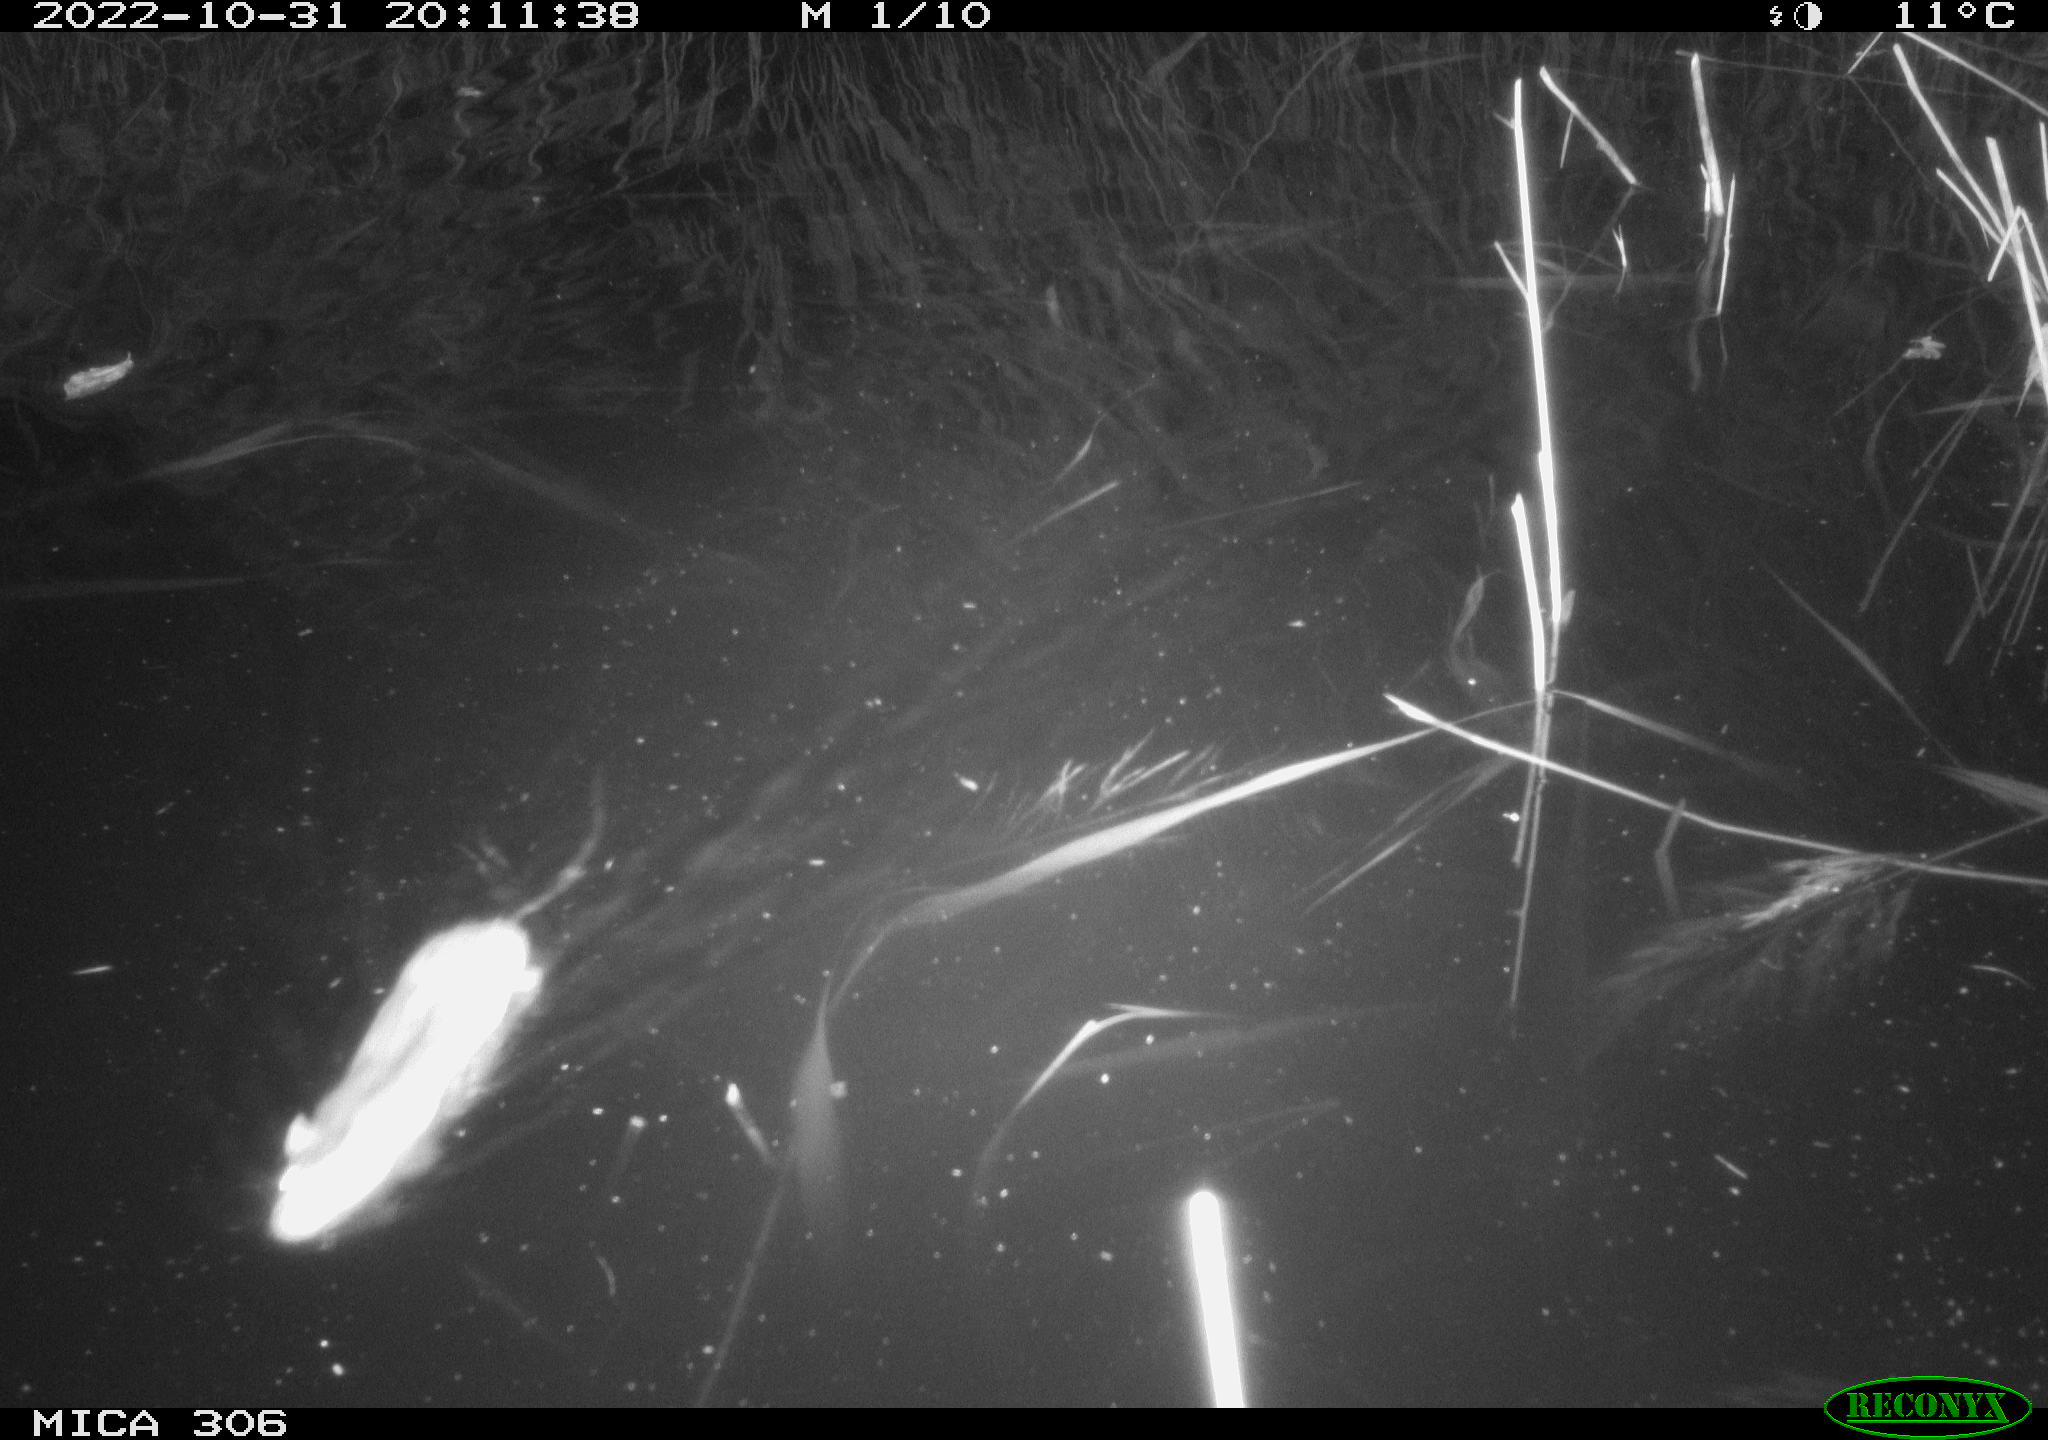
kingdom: Animalia
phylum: Chordata
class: Mammalia
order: Rodentia
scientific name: Rodentia
